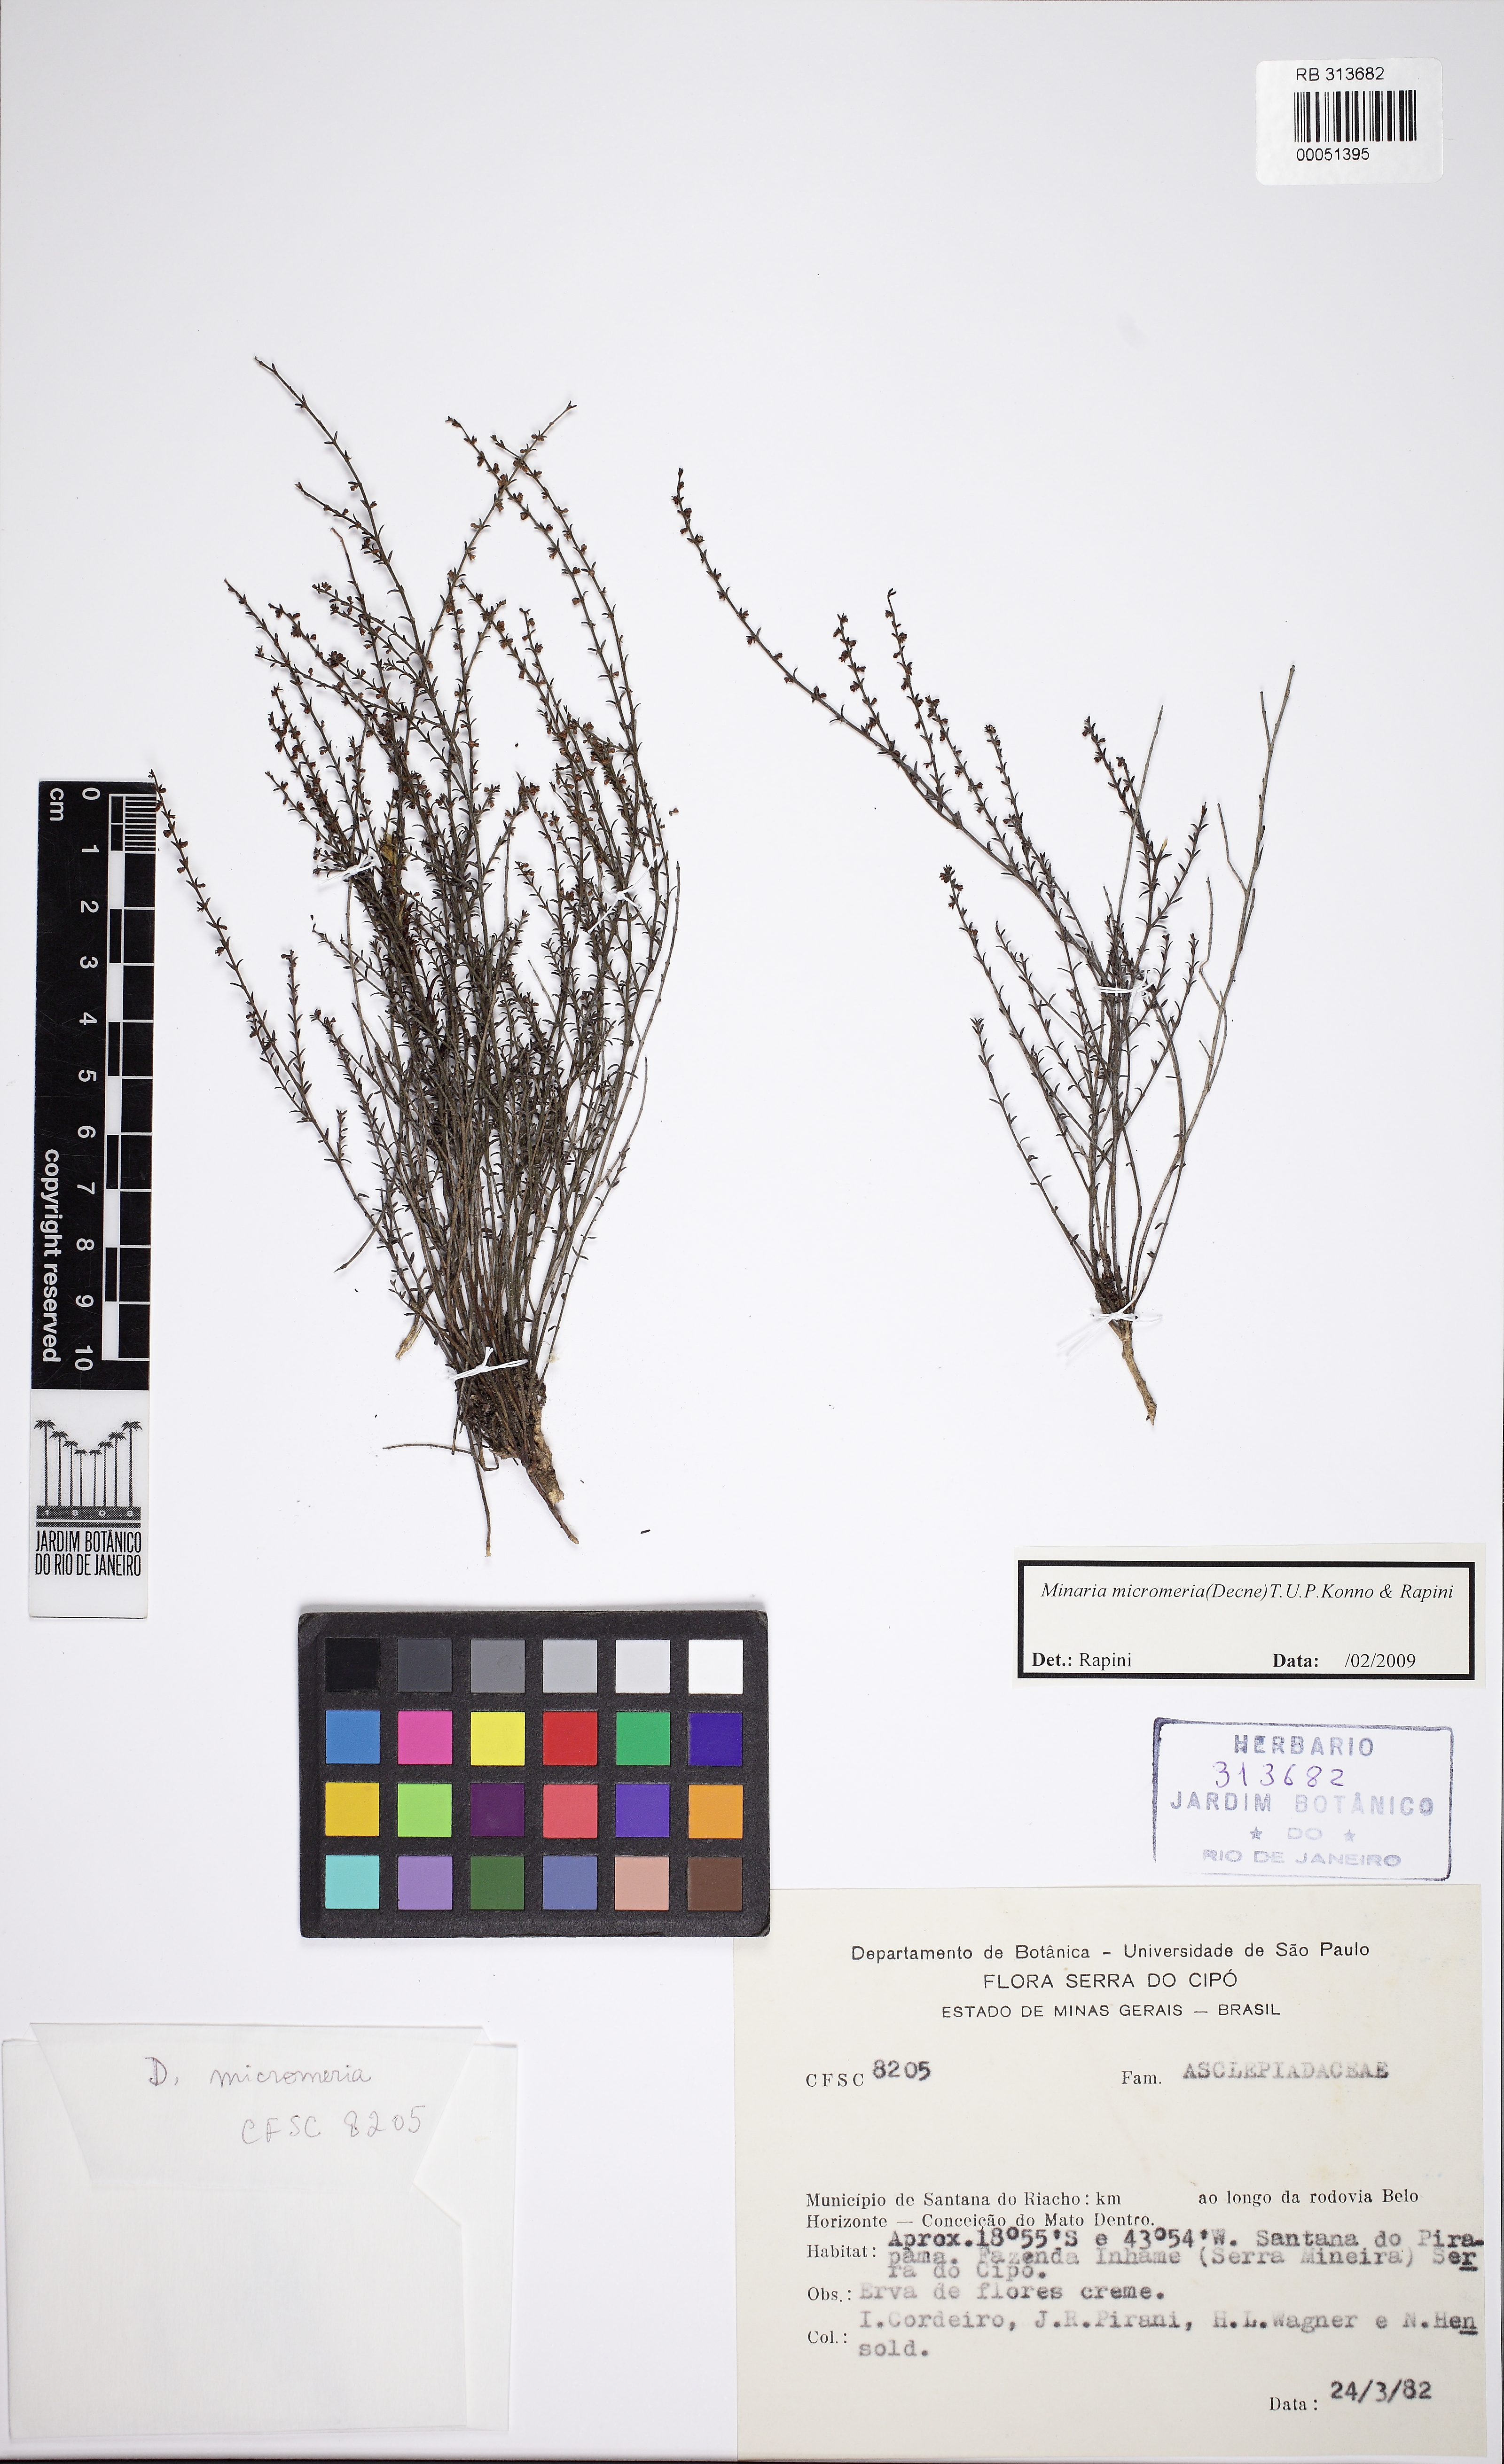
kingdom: Plantae
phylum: Tracheophyta
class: Magnoliopsida
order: Gentianales
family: Apocynaceae
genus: Minaria
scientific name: Minaria micromeria
